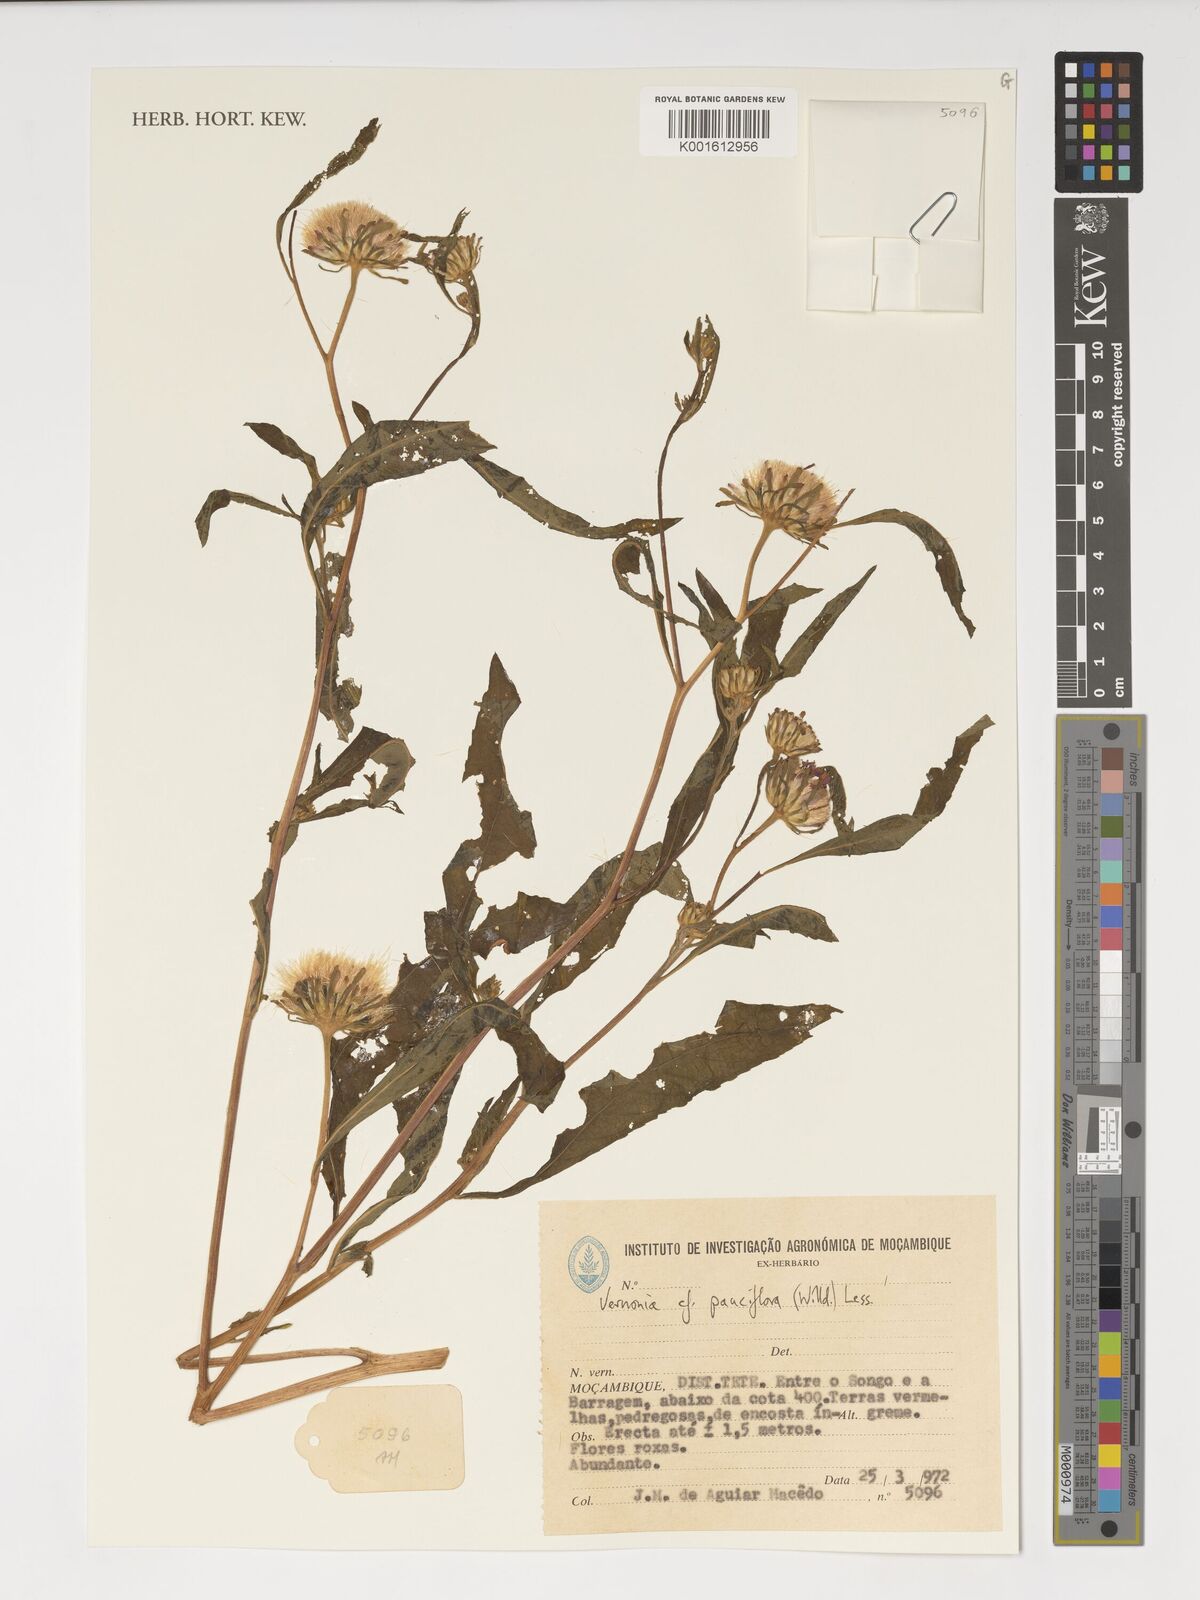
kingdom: Plantae
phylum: Tracheophyta
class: Magnoliopsida
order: Asterales
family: Asteraceae
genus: Vernonia
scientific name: Vernonia galamensis
